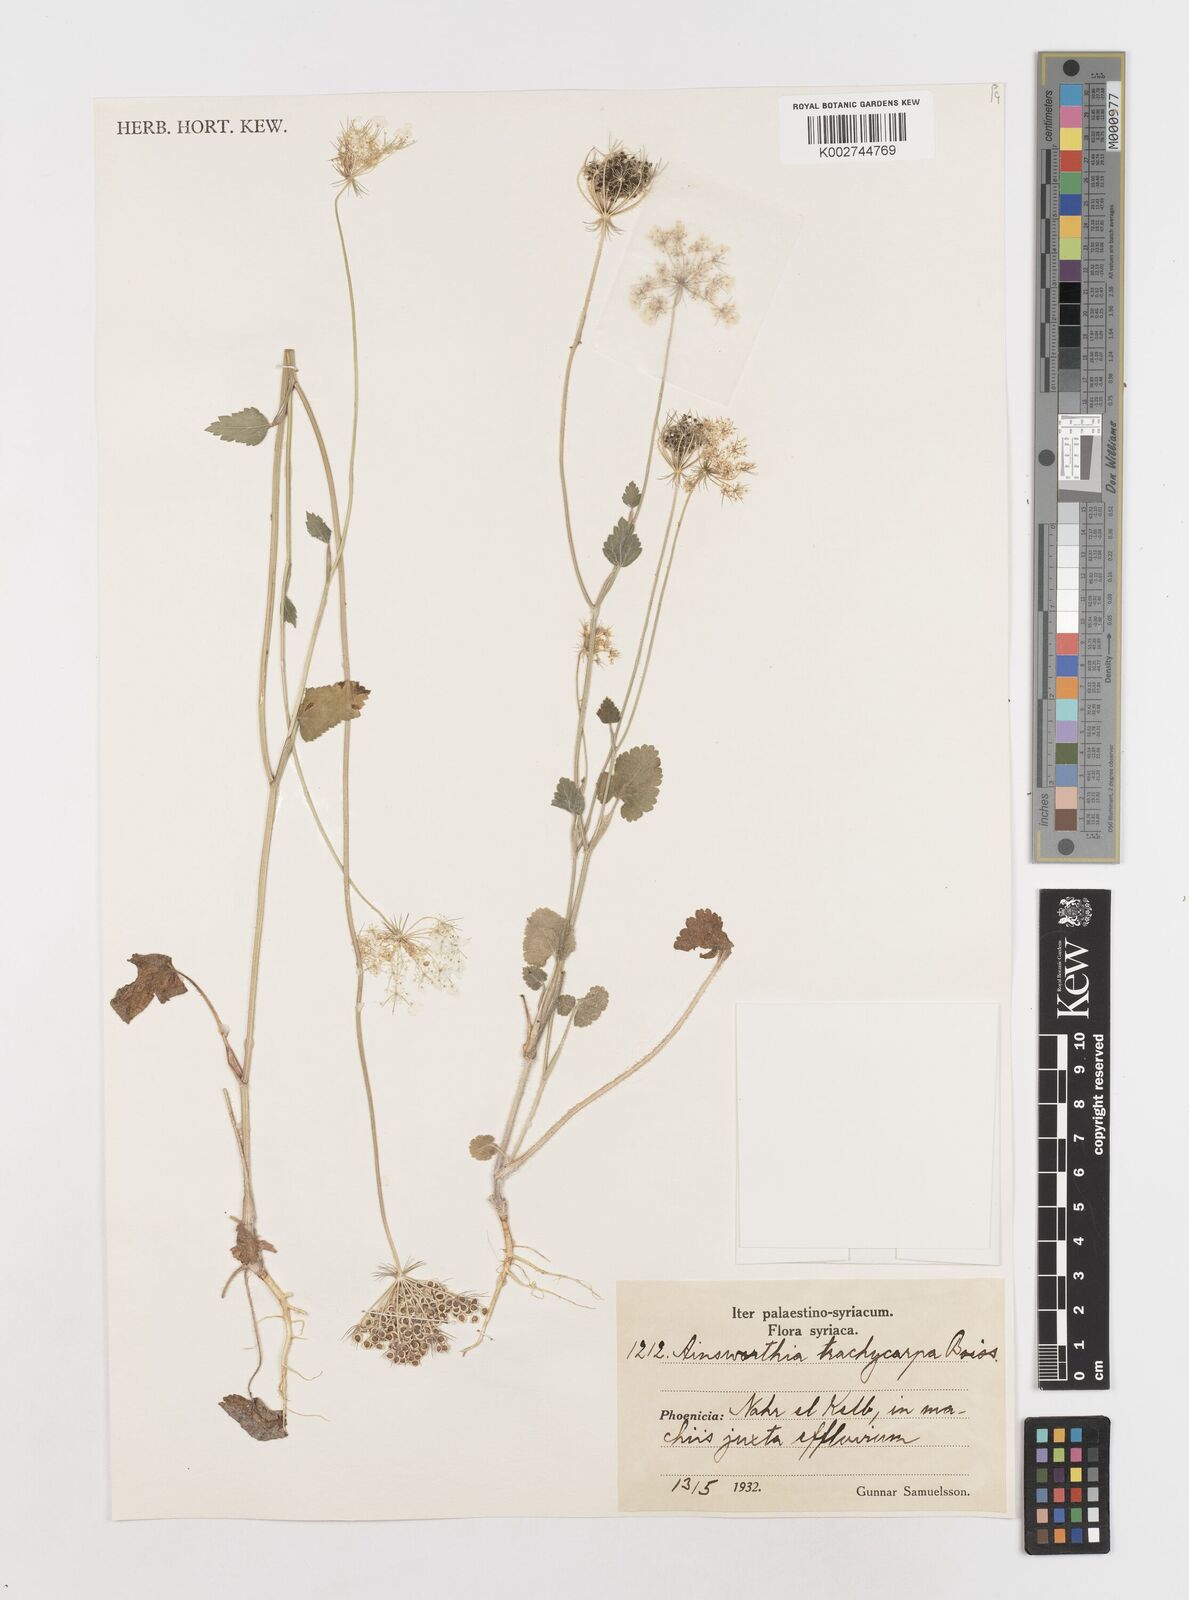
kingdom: Plantae
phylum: Tracheophyta
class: Magnoliopsida
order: Apiales
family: Apiaceae
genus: Ainsworthia
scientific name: Ainsworthia trachycarpa
